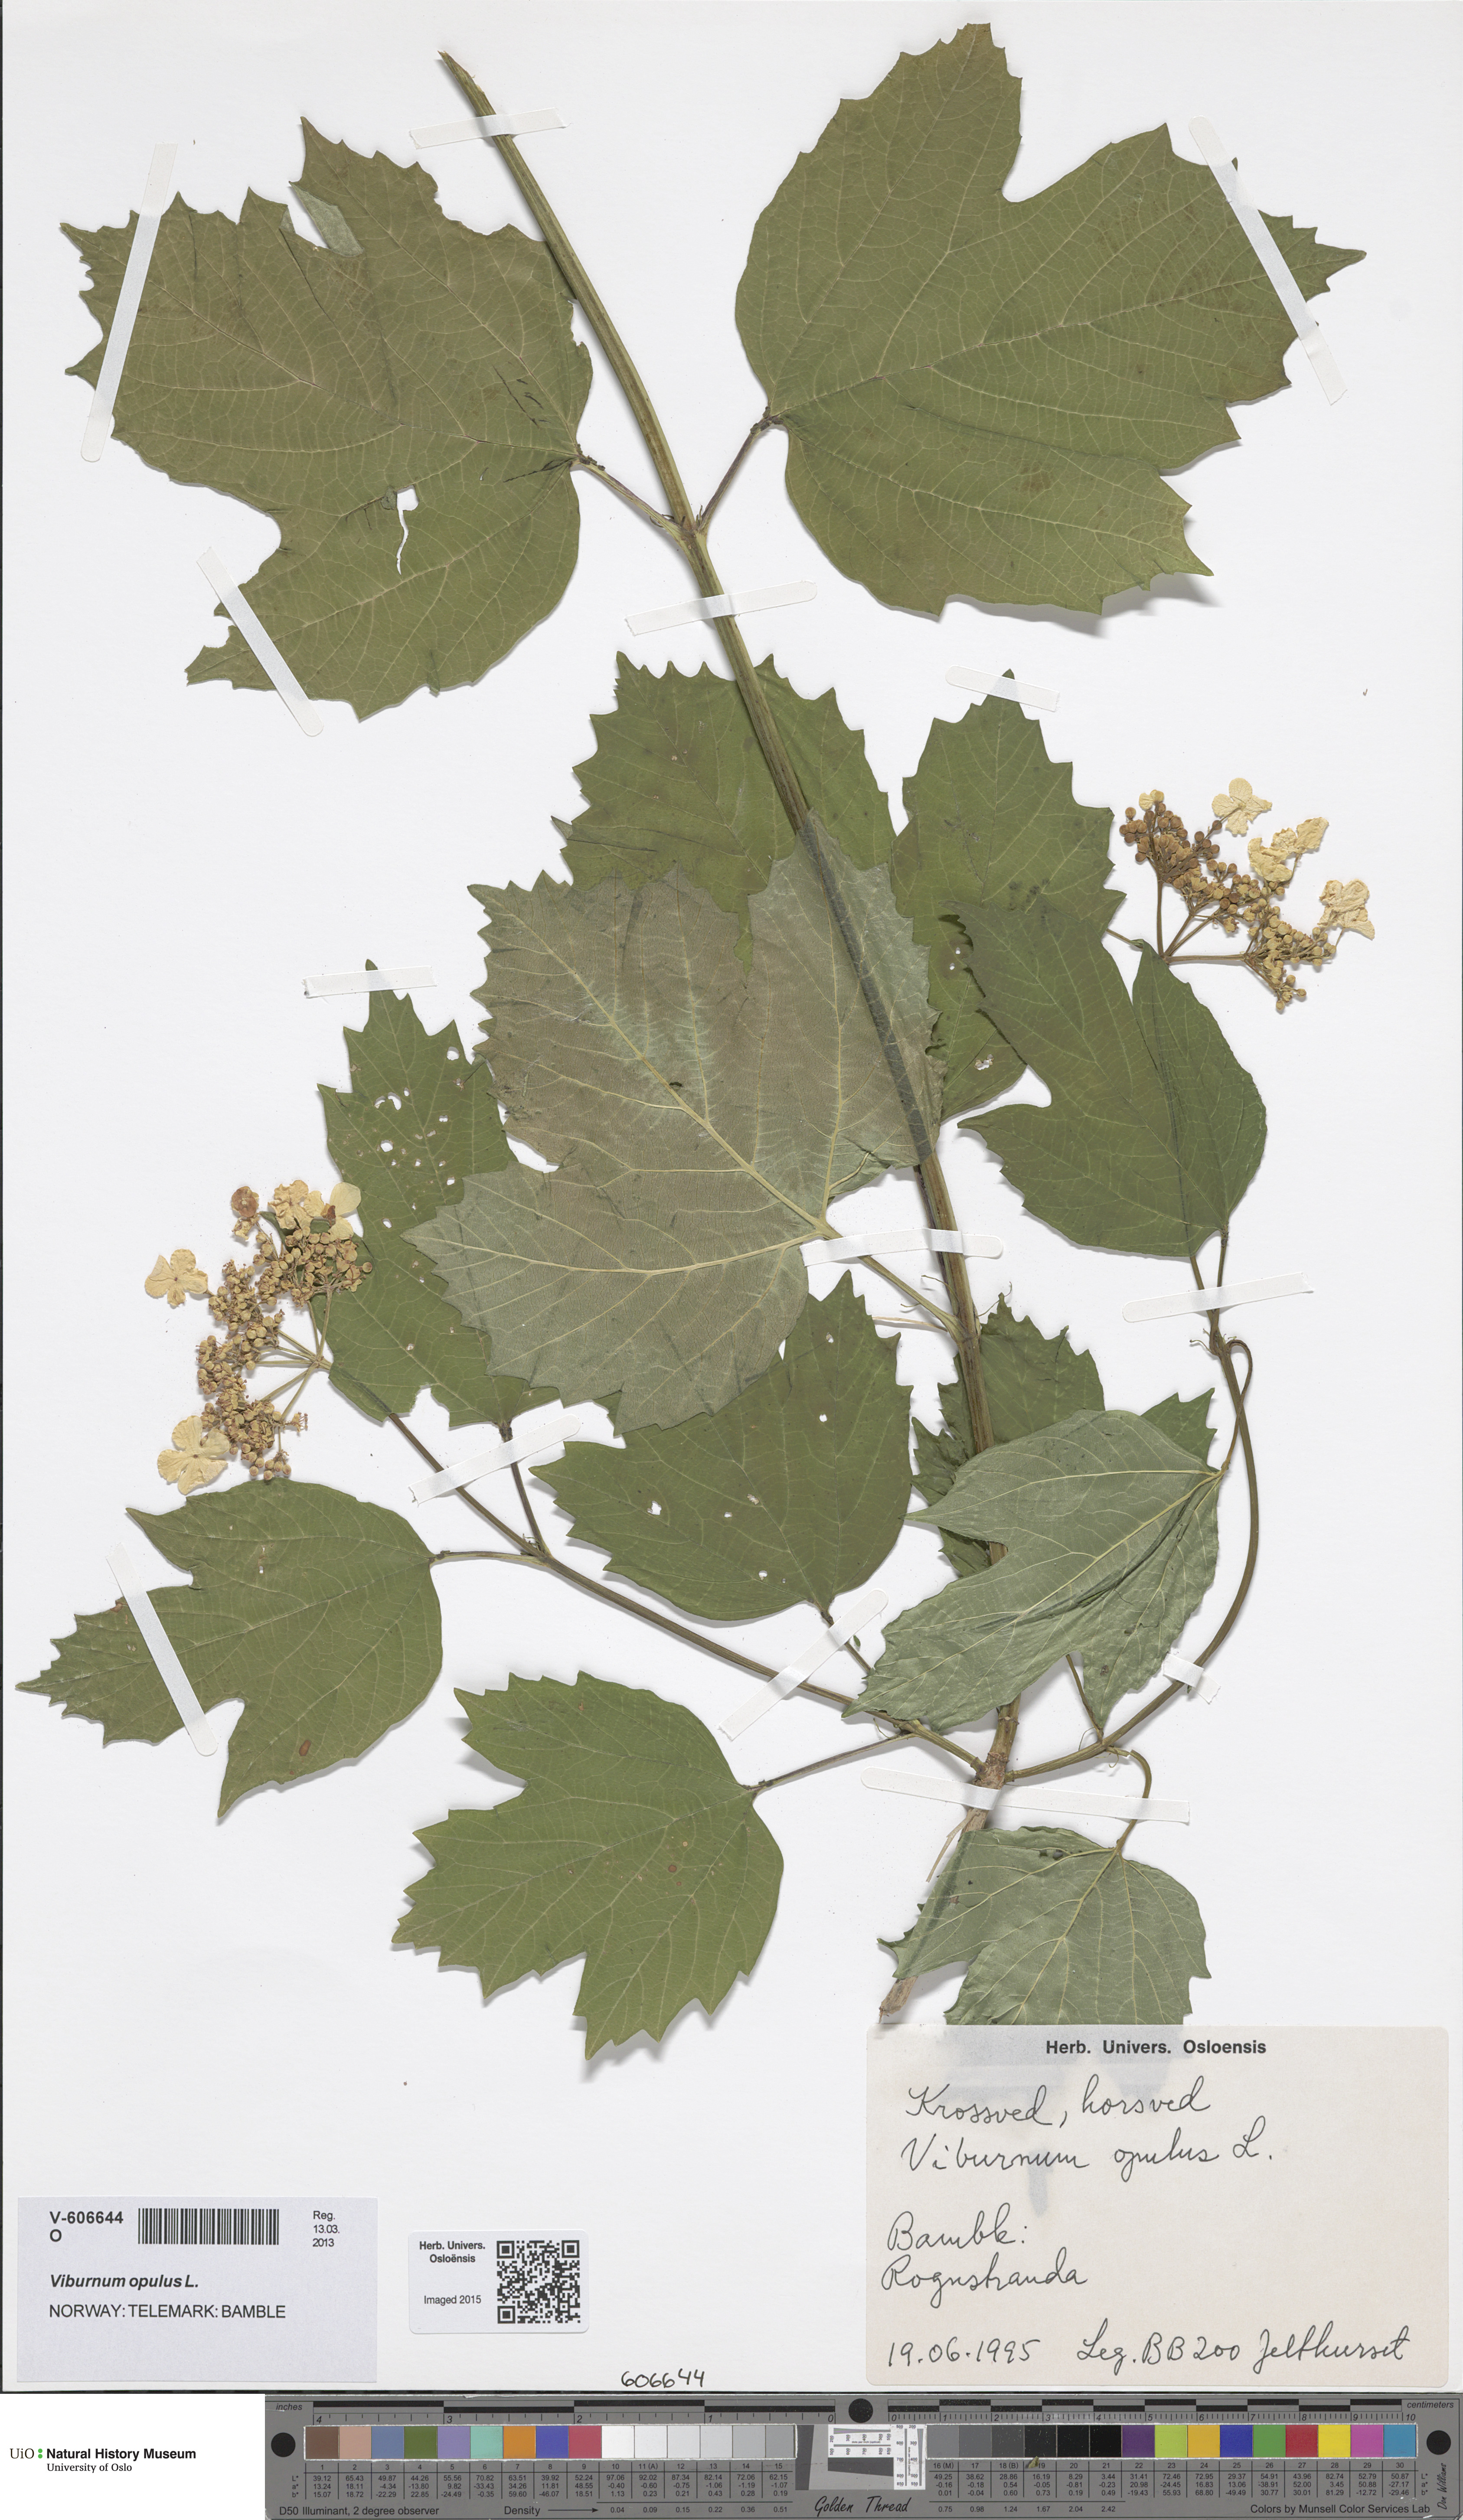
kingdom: Plantae
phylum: Tracheophyta
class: Magnoliopsida
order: Dipsacales
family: Viburnaceae
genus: Viburnum
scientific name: Viburnum opulus
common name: Guelder-rose
